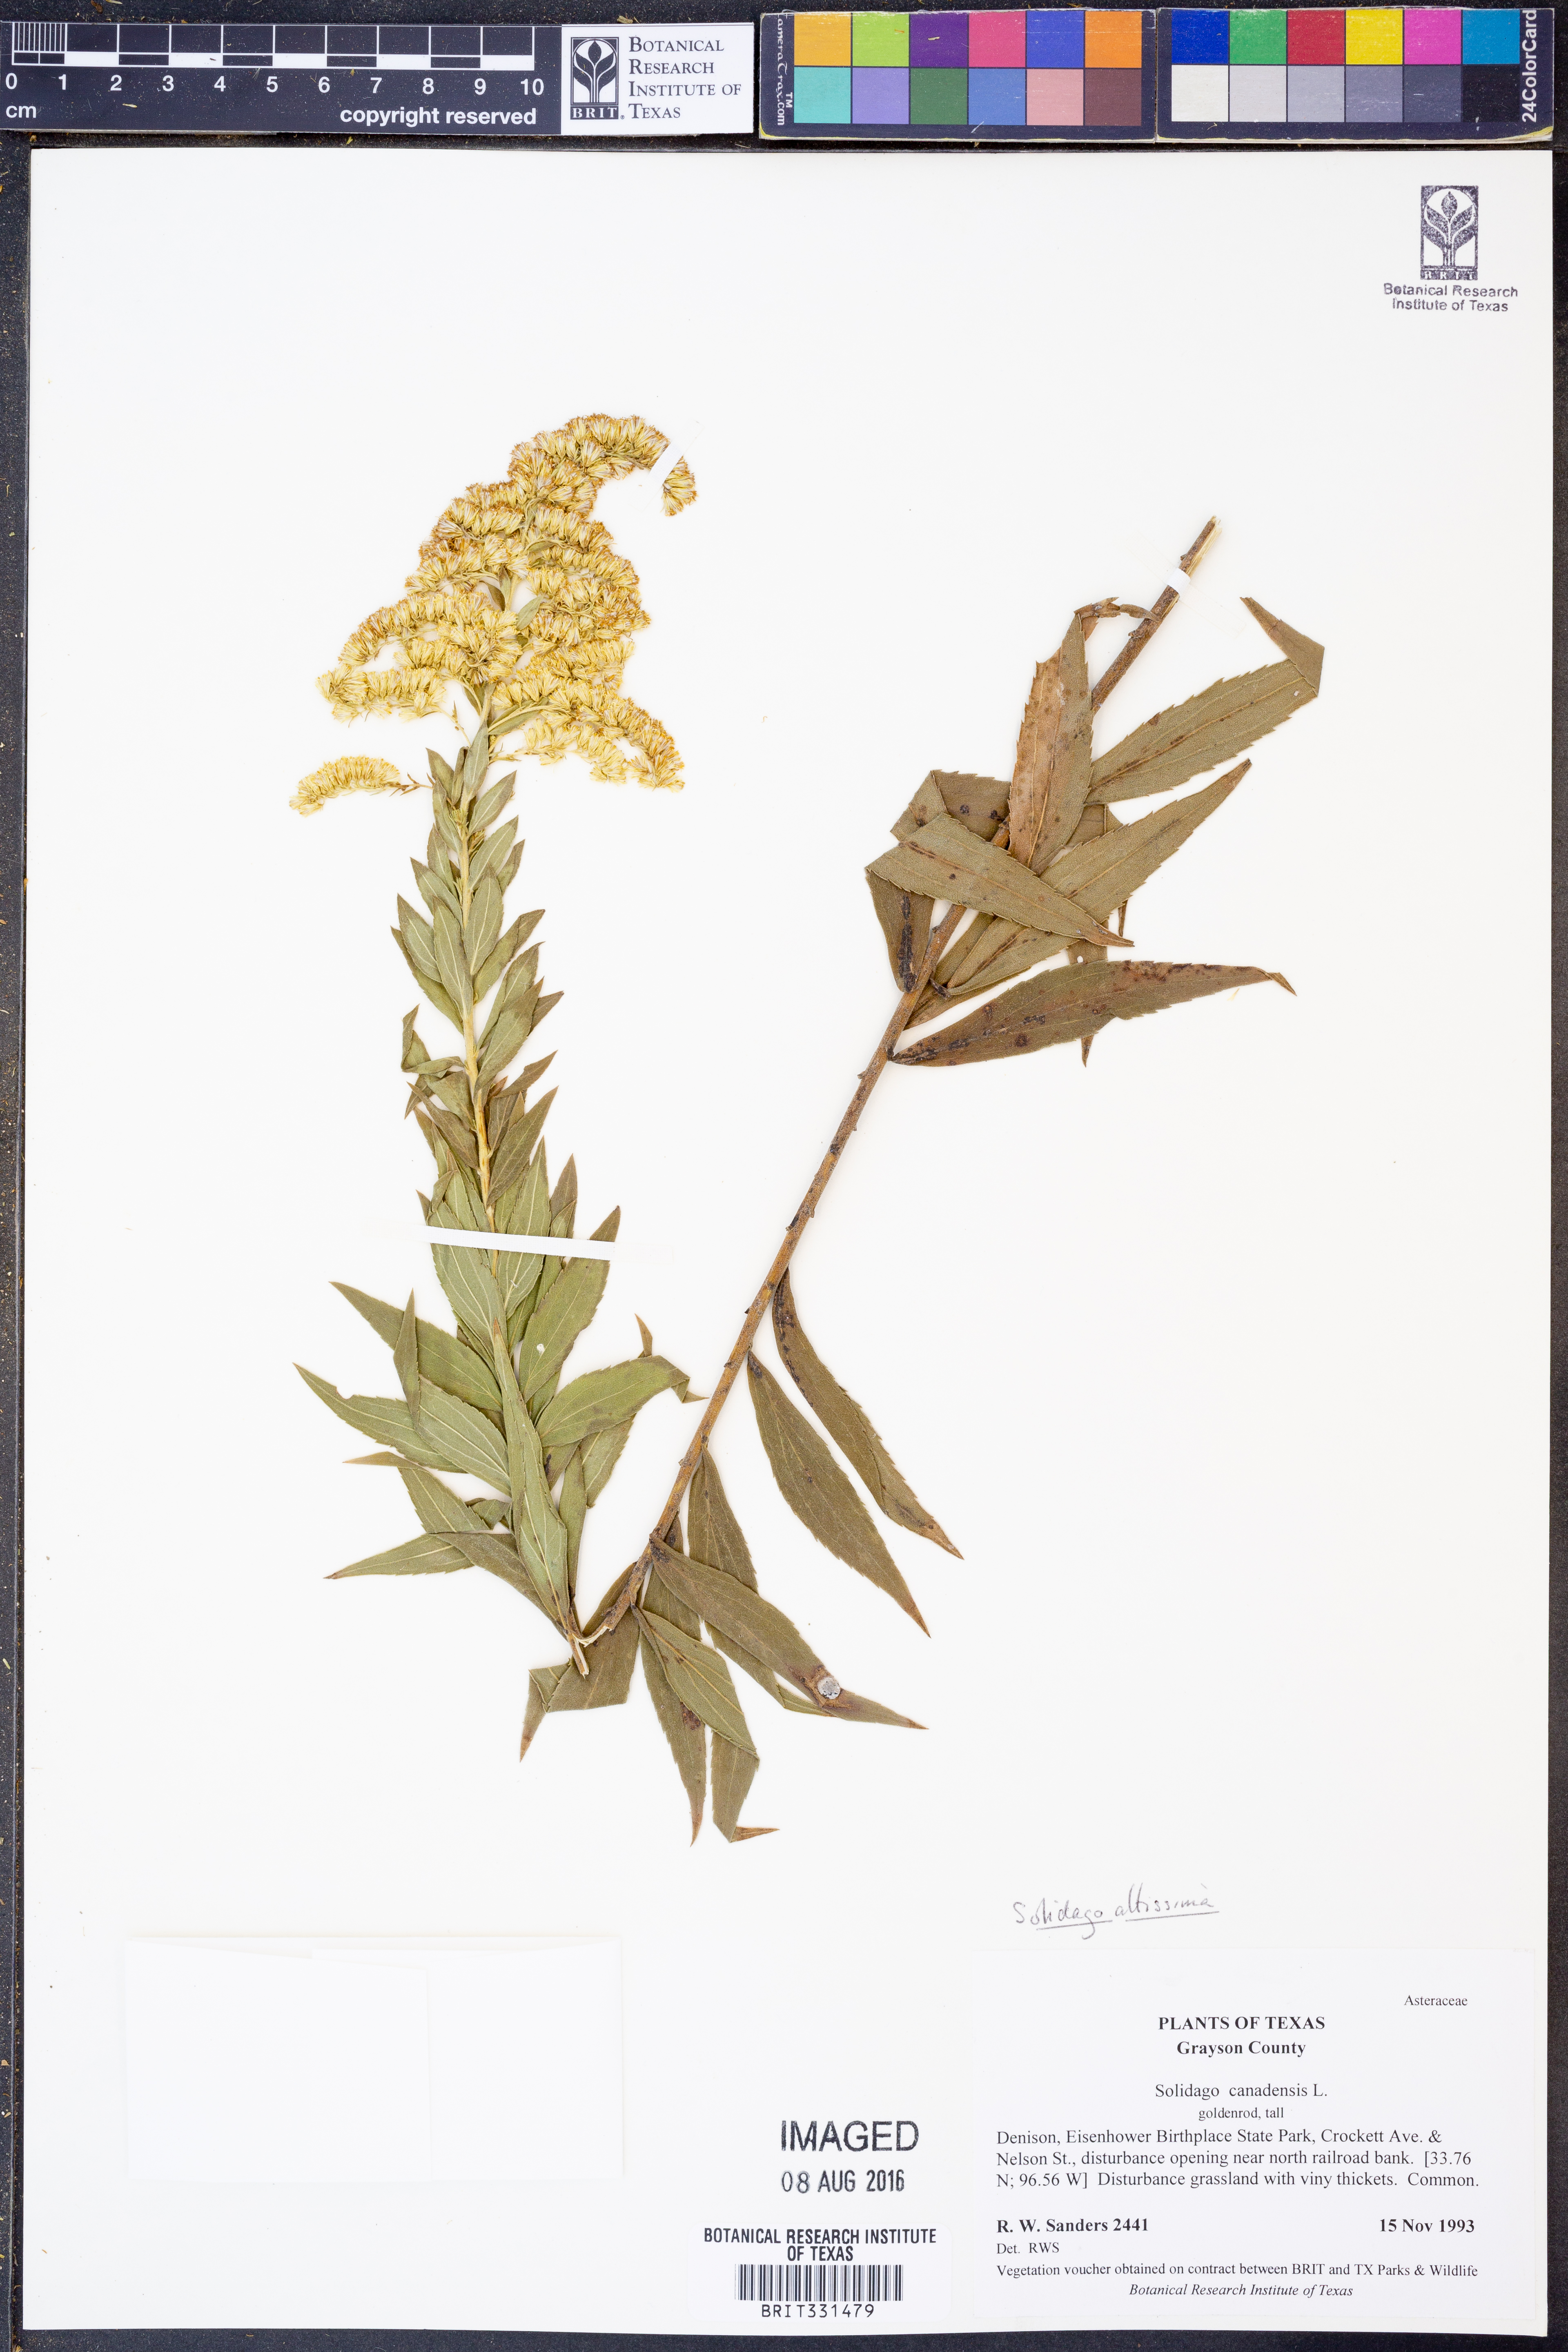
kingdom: Plantae
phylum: Tracheophyta
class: Magnoliopsida
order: Asterales
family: Asteraceae
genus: Solidago
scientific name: Solidago altissima
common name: Late goldenrod
